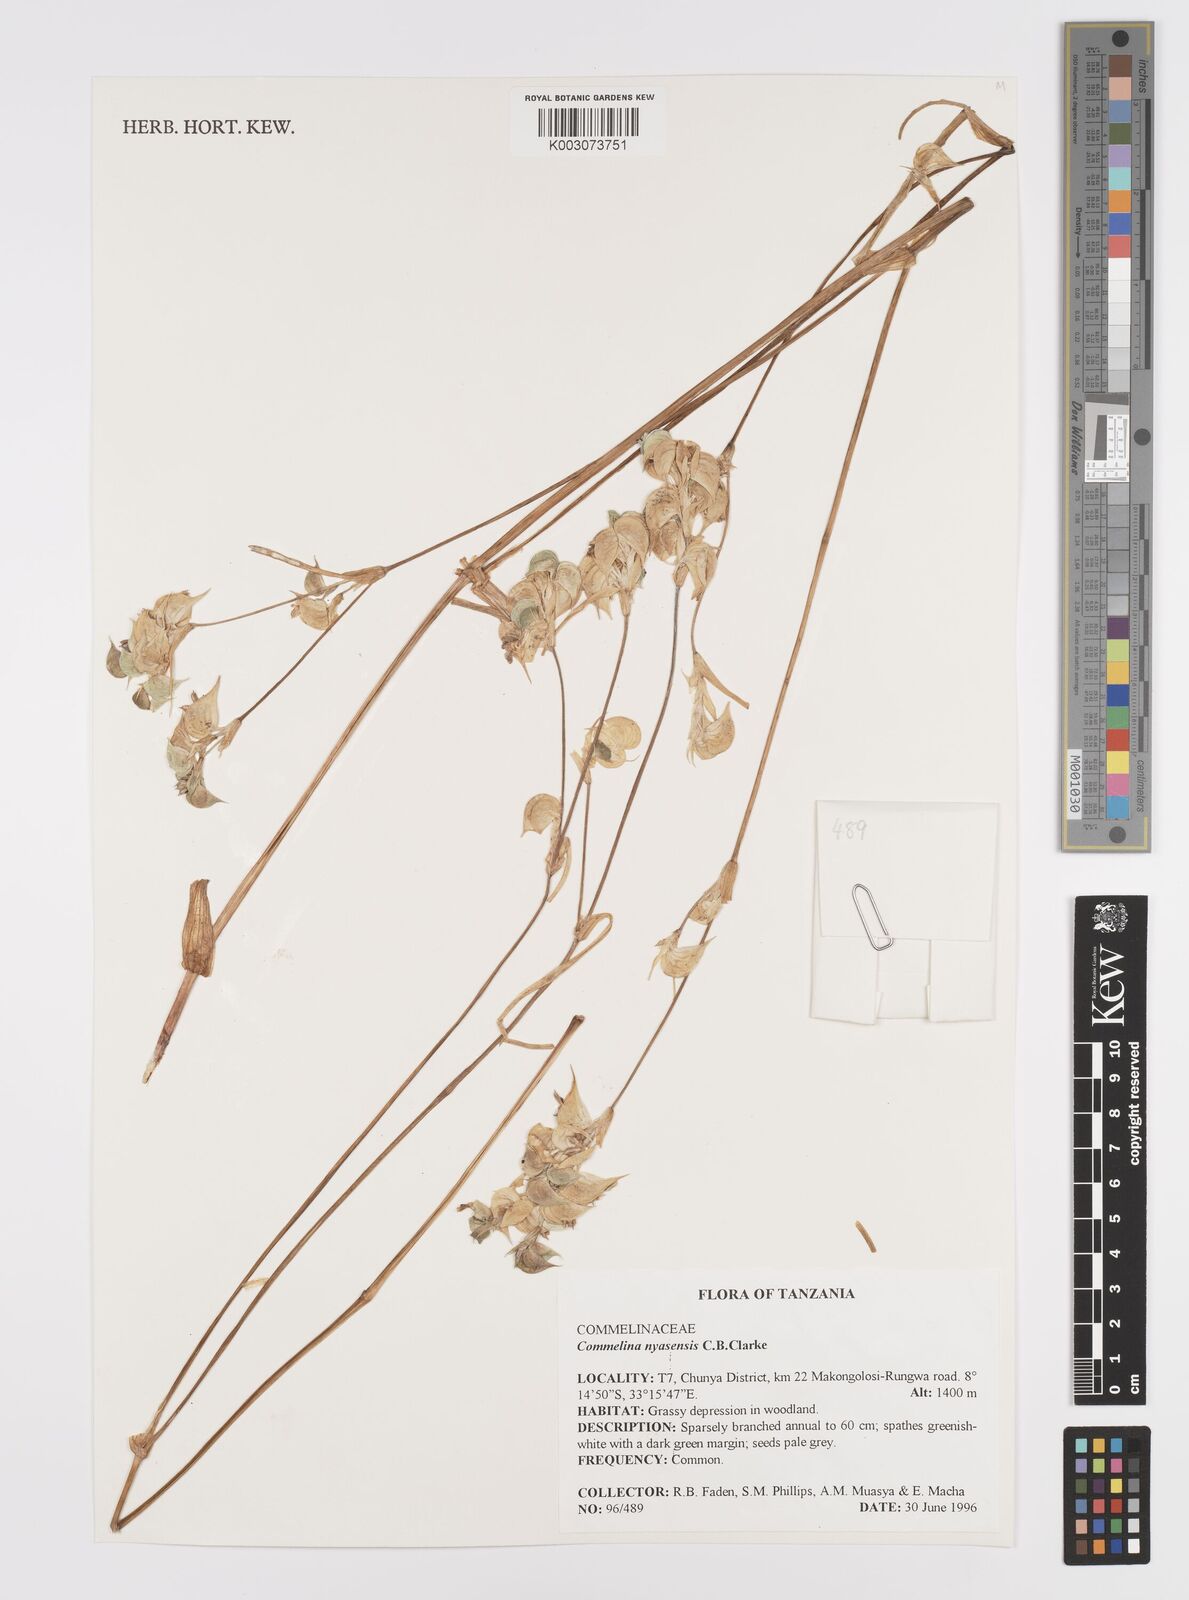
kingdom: Plantae
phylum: Tracheophyta
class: Liliopsida
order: Commelinales
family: Commelinaceae
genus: Commelina
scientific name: Commelina nyasensis
